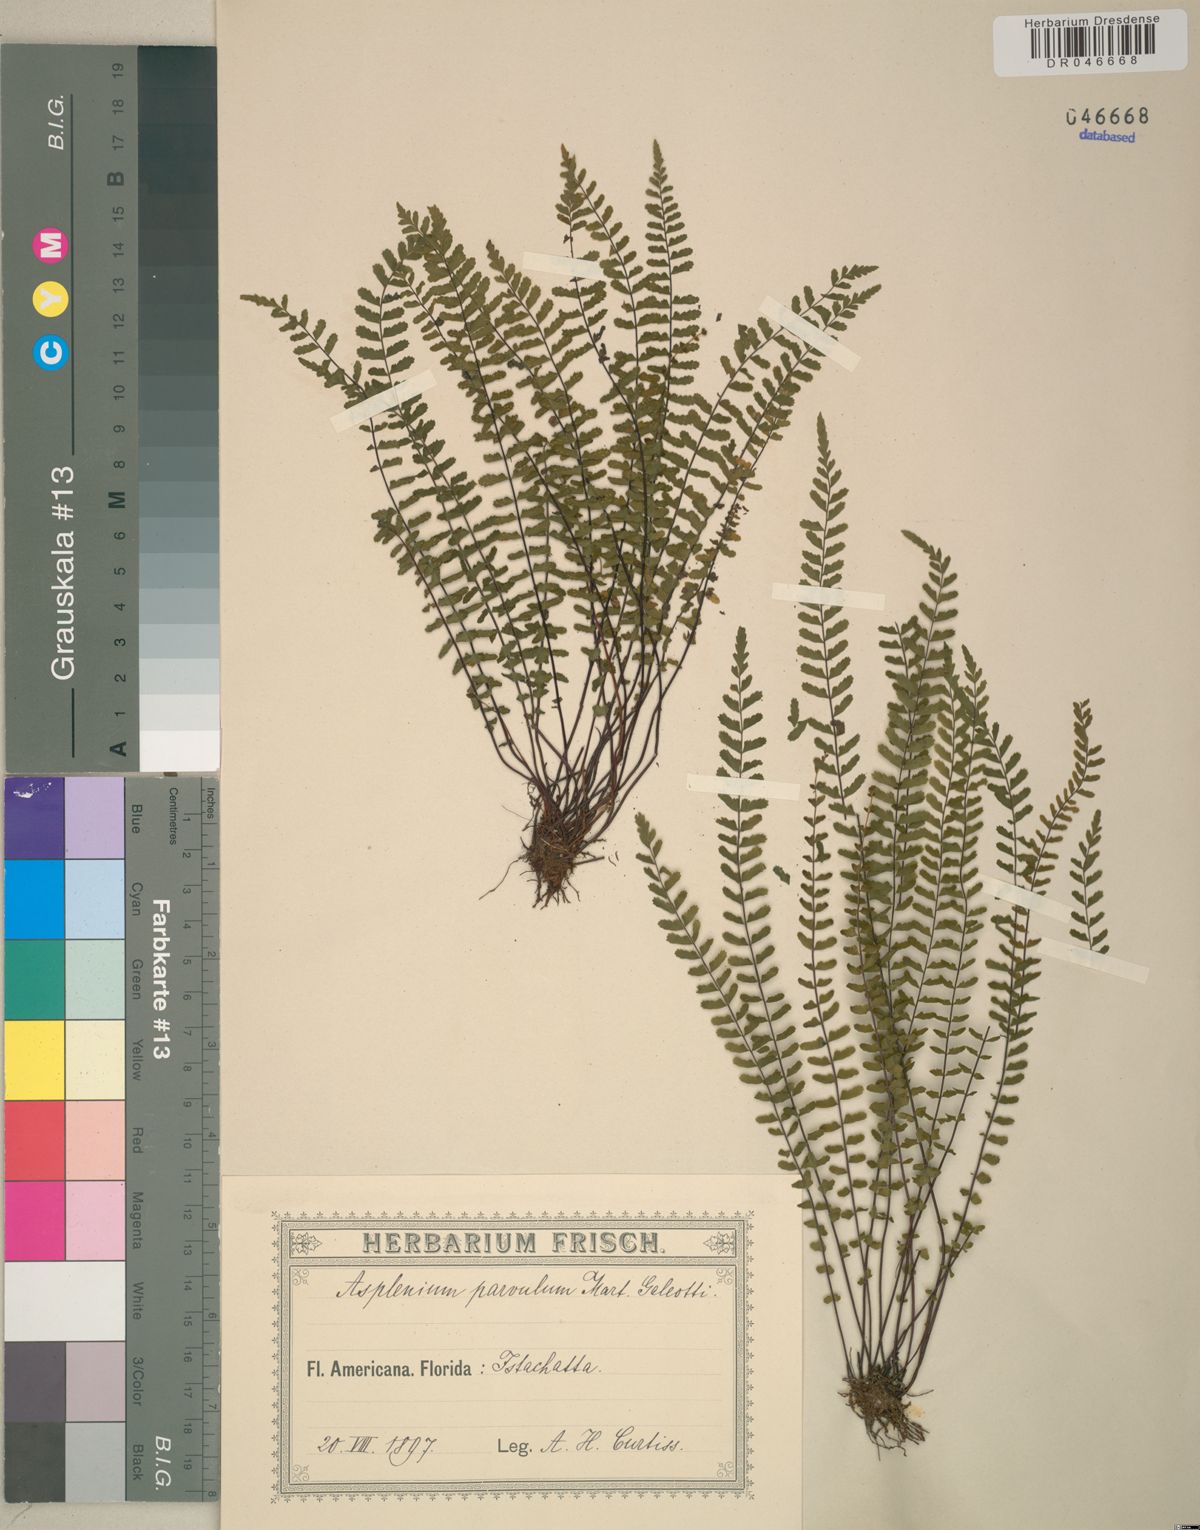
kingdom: Plantae
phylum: Tracheophyta
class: Polypodiopsida
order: Polypodiales
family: Aspleniaceae
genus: Asplenium
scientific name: Asplenium resiliens
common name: Blackstem spleenwort
